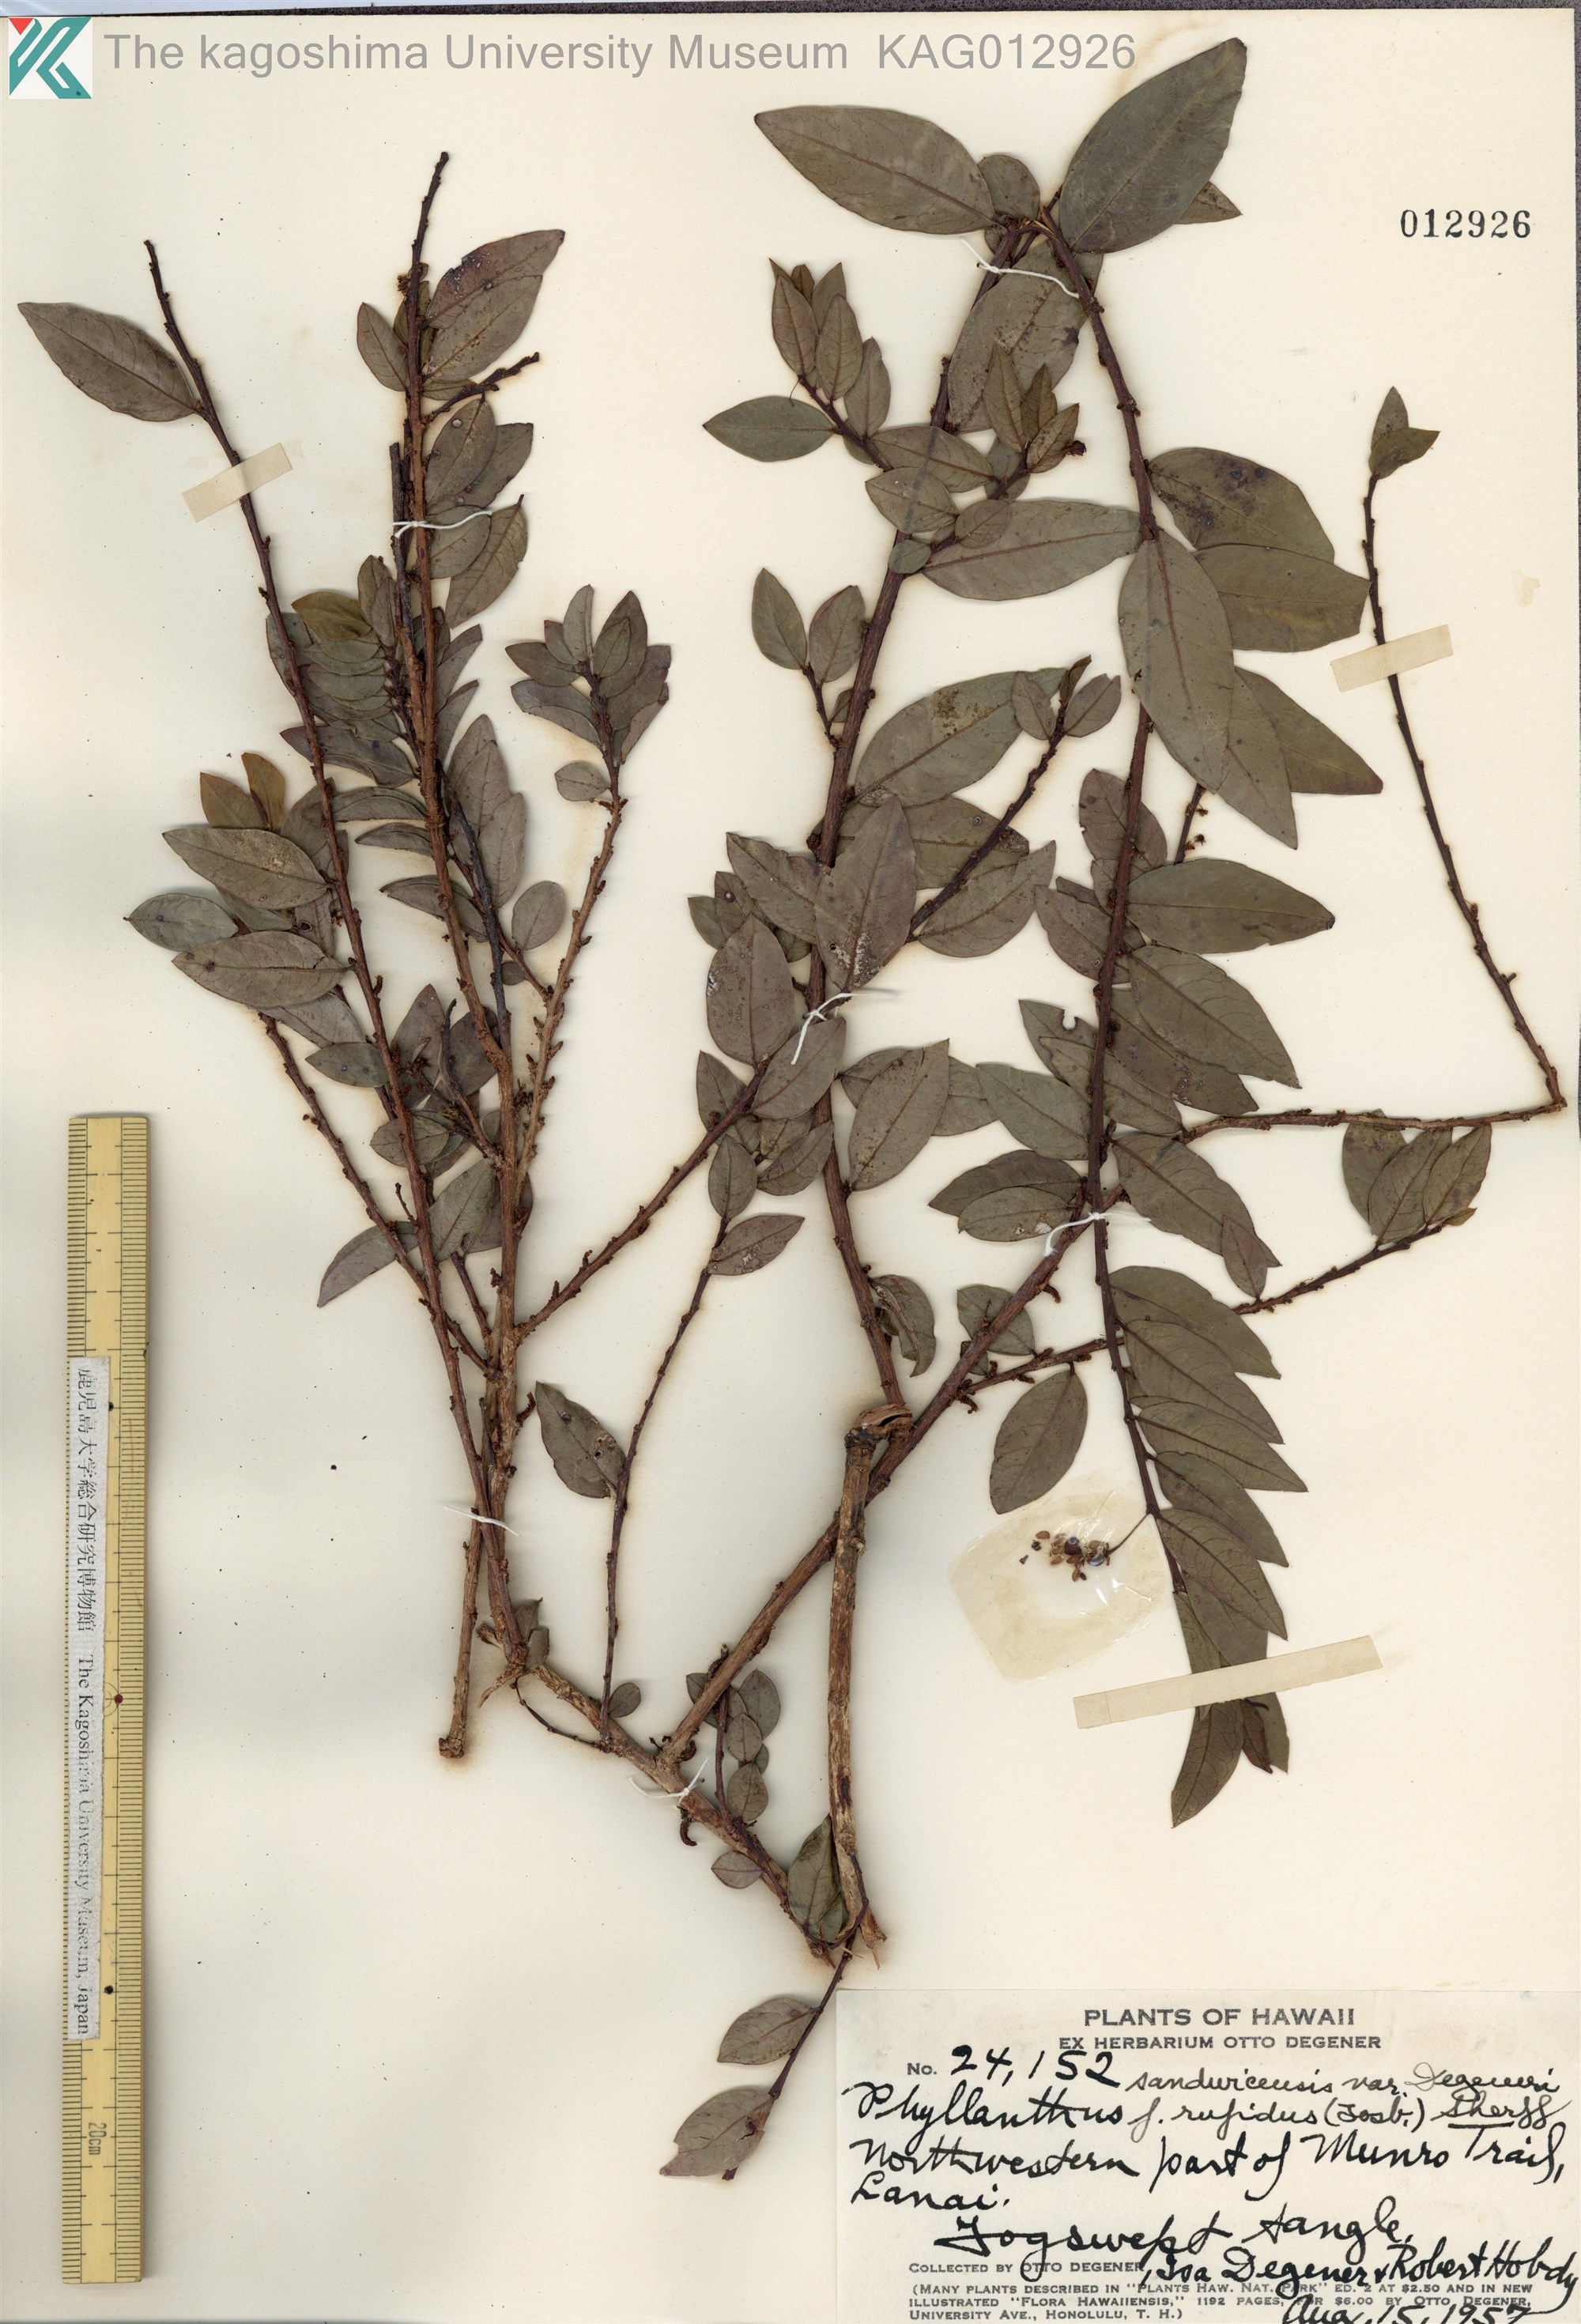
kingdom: Plantae
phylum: Tracheophyta
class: Magnoliopsida
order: Malpighiales
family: Phyllanthaceae
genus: Phyllanthus
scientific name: Phyllanthus distichus
